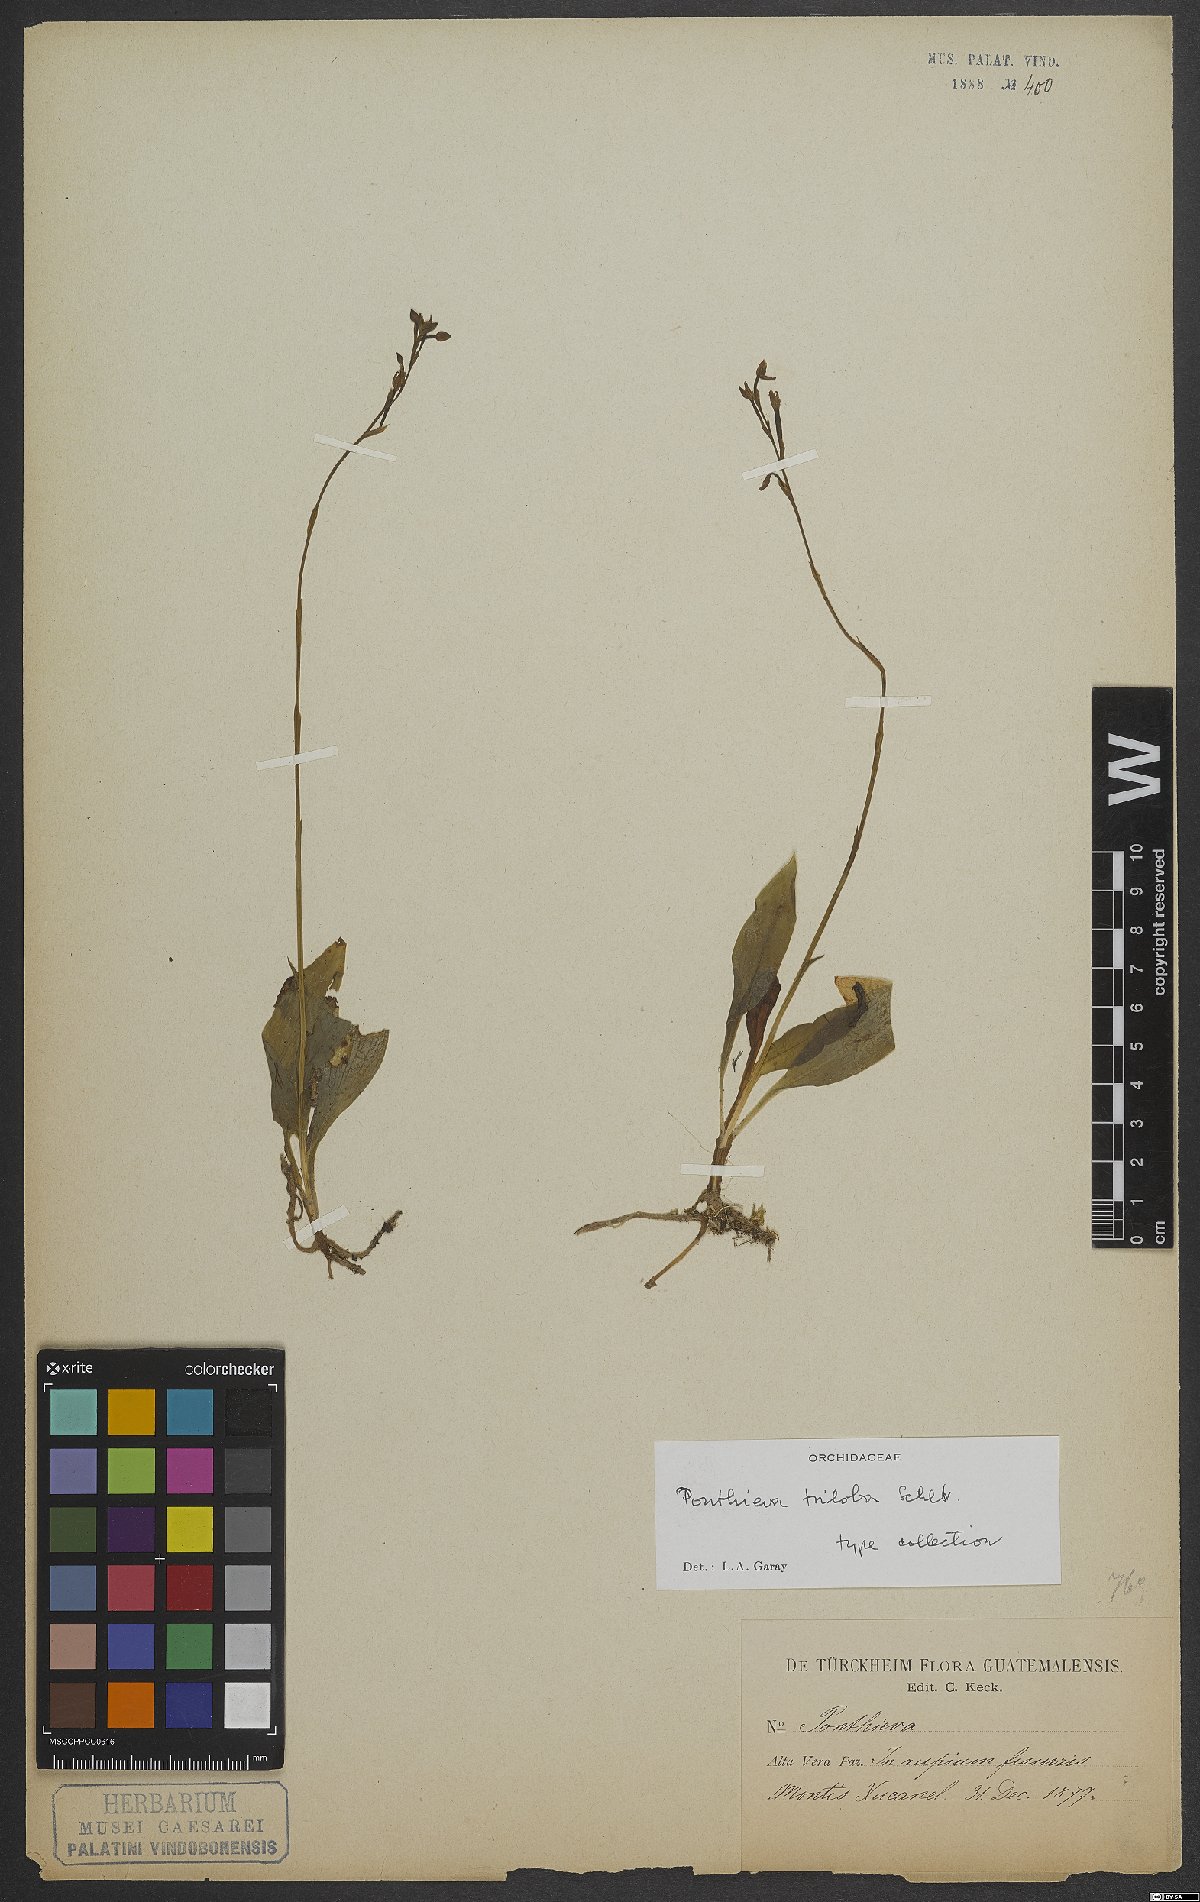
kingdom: Plantae
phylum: Tracheophyta
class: Liliopsida
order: Asparagales
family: Orchidaceae
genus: Ponthieva
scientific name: Ponthieva triloba
